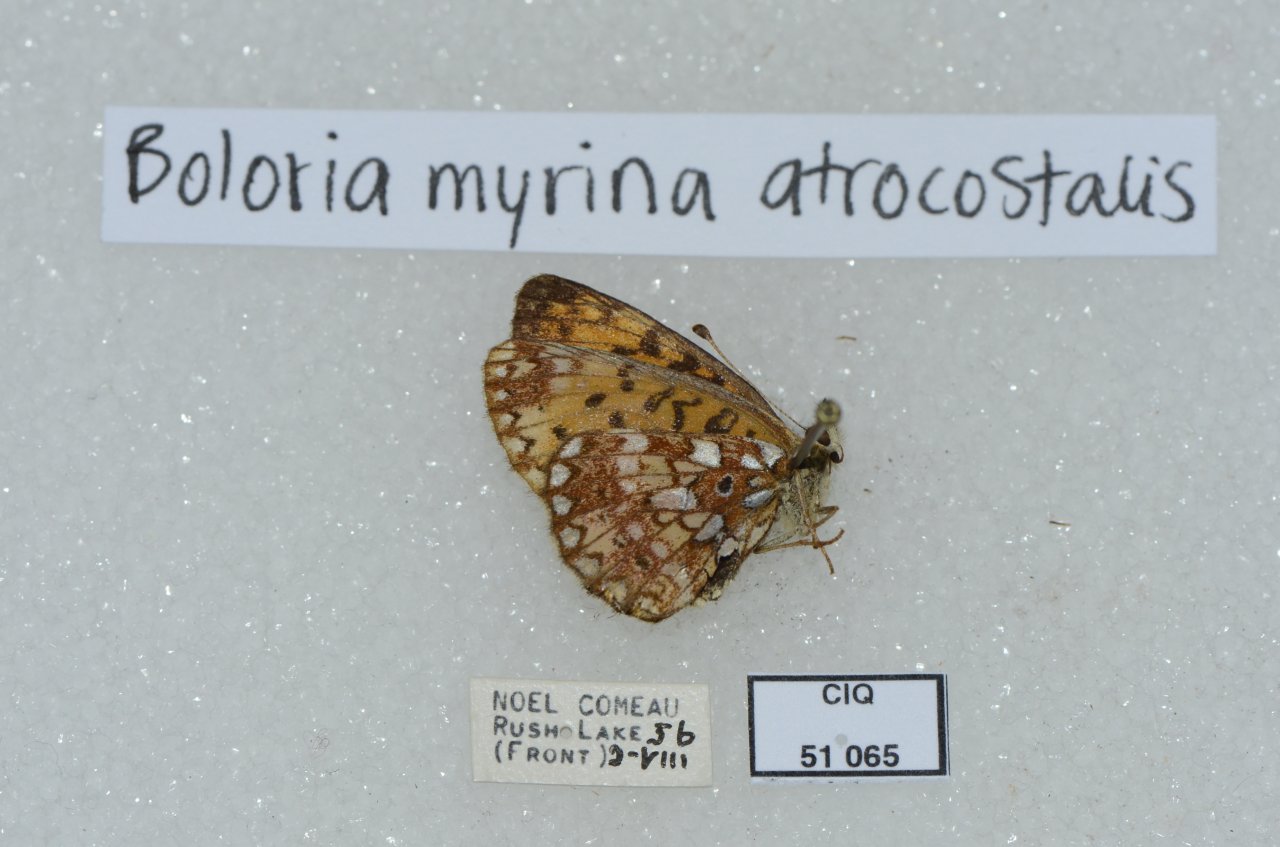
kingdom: Animalia
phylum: Arthropoda
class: Insecta
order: Lepidoptera
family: Nymphalidae
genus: Boloria
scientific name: Boloria selene
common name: Silver-bordered Fritillary
